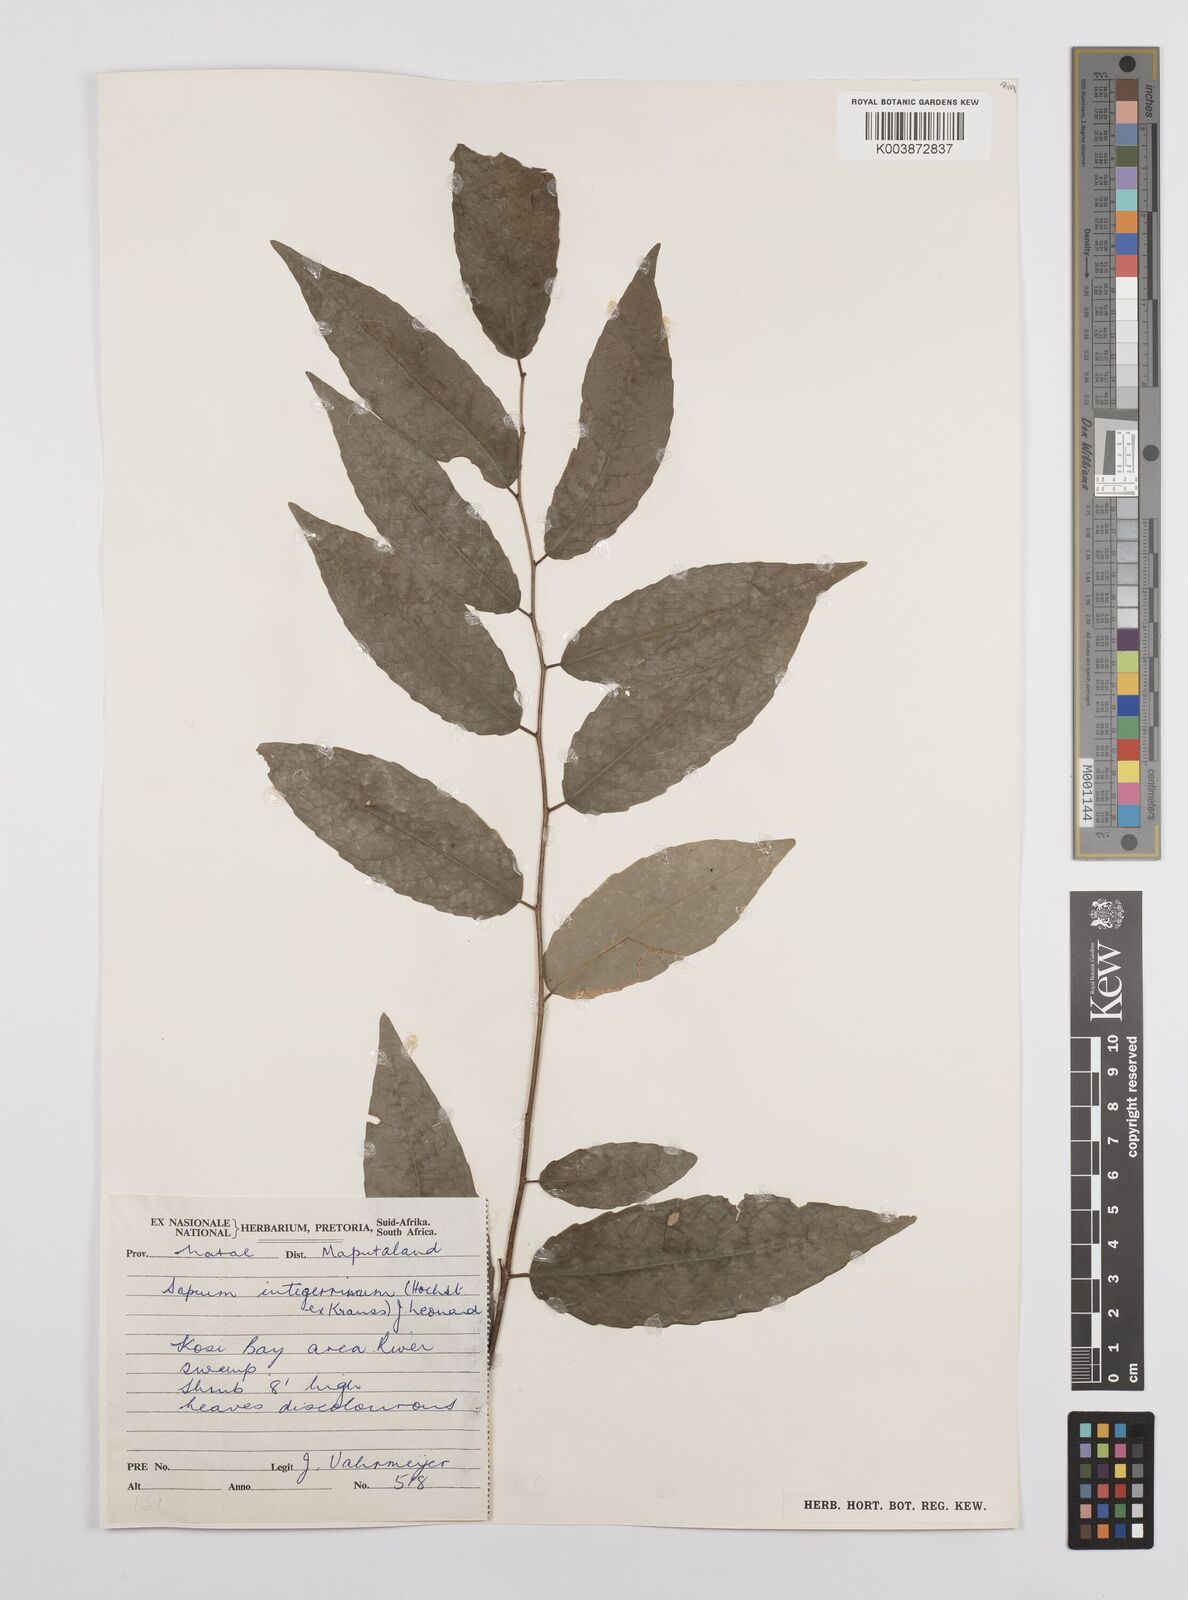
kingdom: Plantae
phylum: Tracheophyta
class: Magnoliopsida
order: Malpighiales
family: Euphorbiaceae
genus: Sclerocroton
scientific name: Sclerocroton integerrimus
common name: Duiker berry
